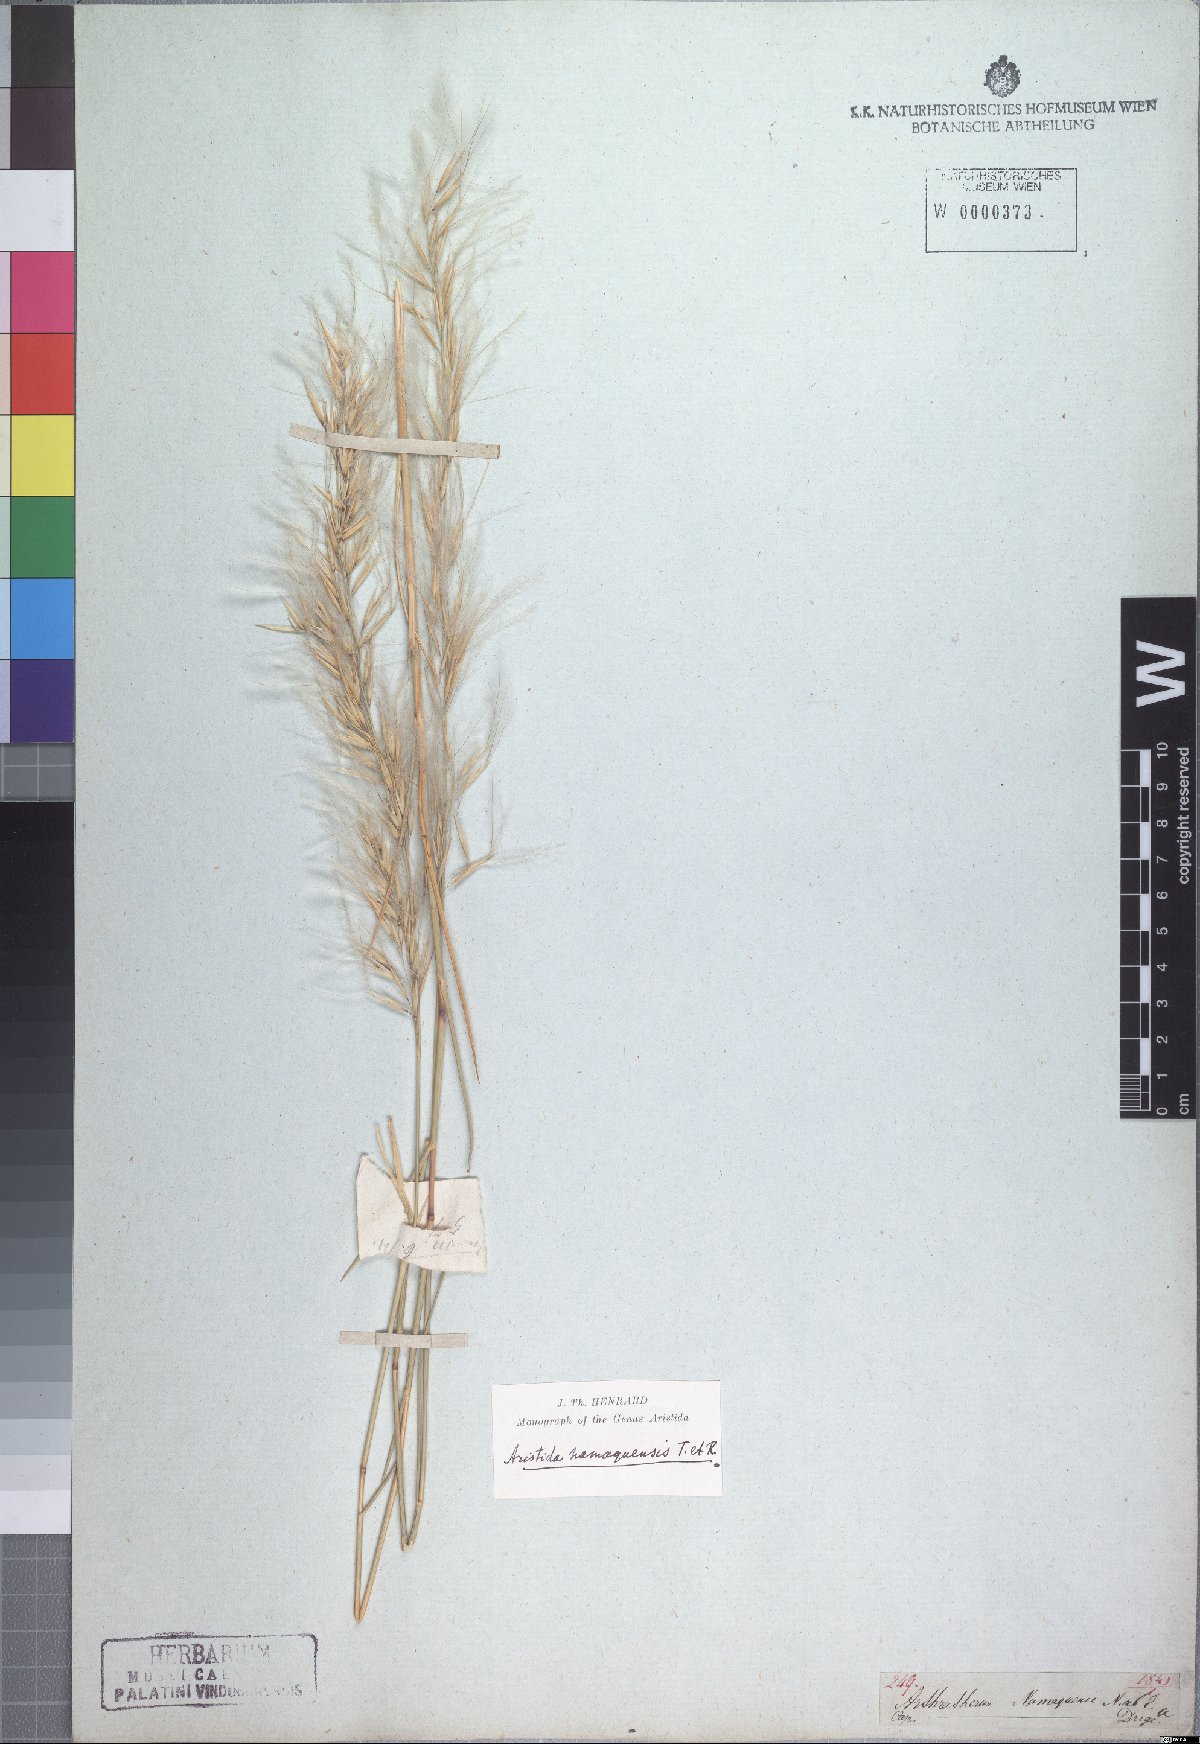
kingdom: Plantae
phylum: Tracheophyta
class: Liliopsida
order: Poales
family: Poaceae
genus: Stipagrostis
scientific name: Stipagrostis namaquensis
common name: River bushman grass
